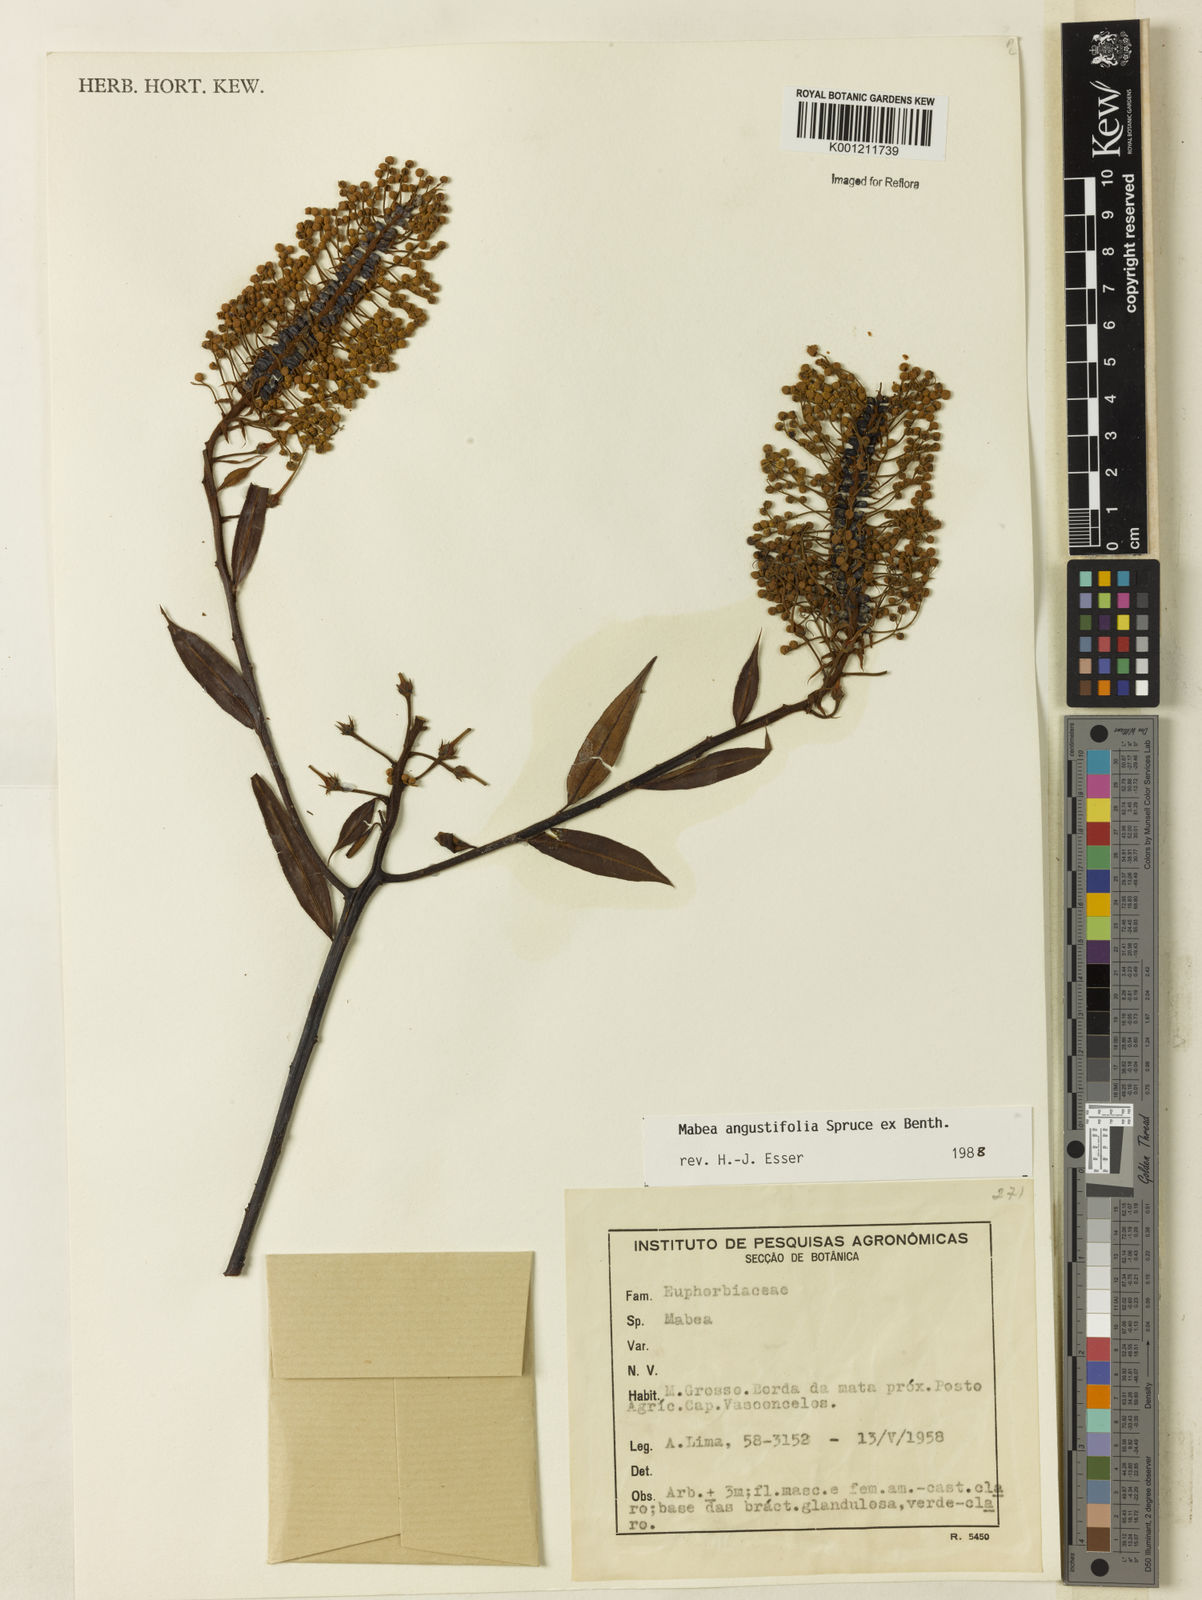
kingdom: Plantae
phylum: Tracheophyta
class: Magnoliopsida
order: Malpighiales
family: Euphorbiaceae
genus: Mabea
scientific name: Mabea angustifolia
